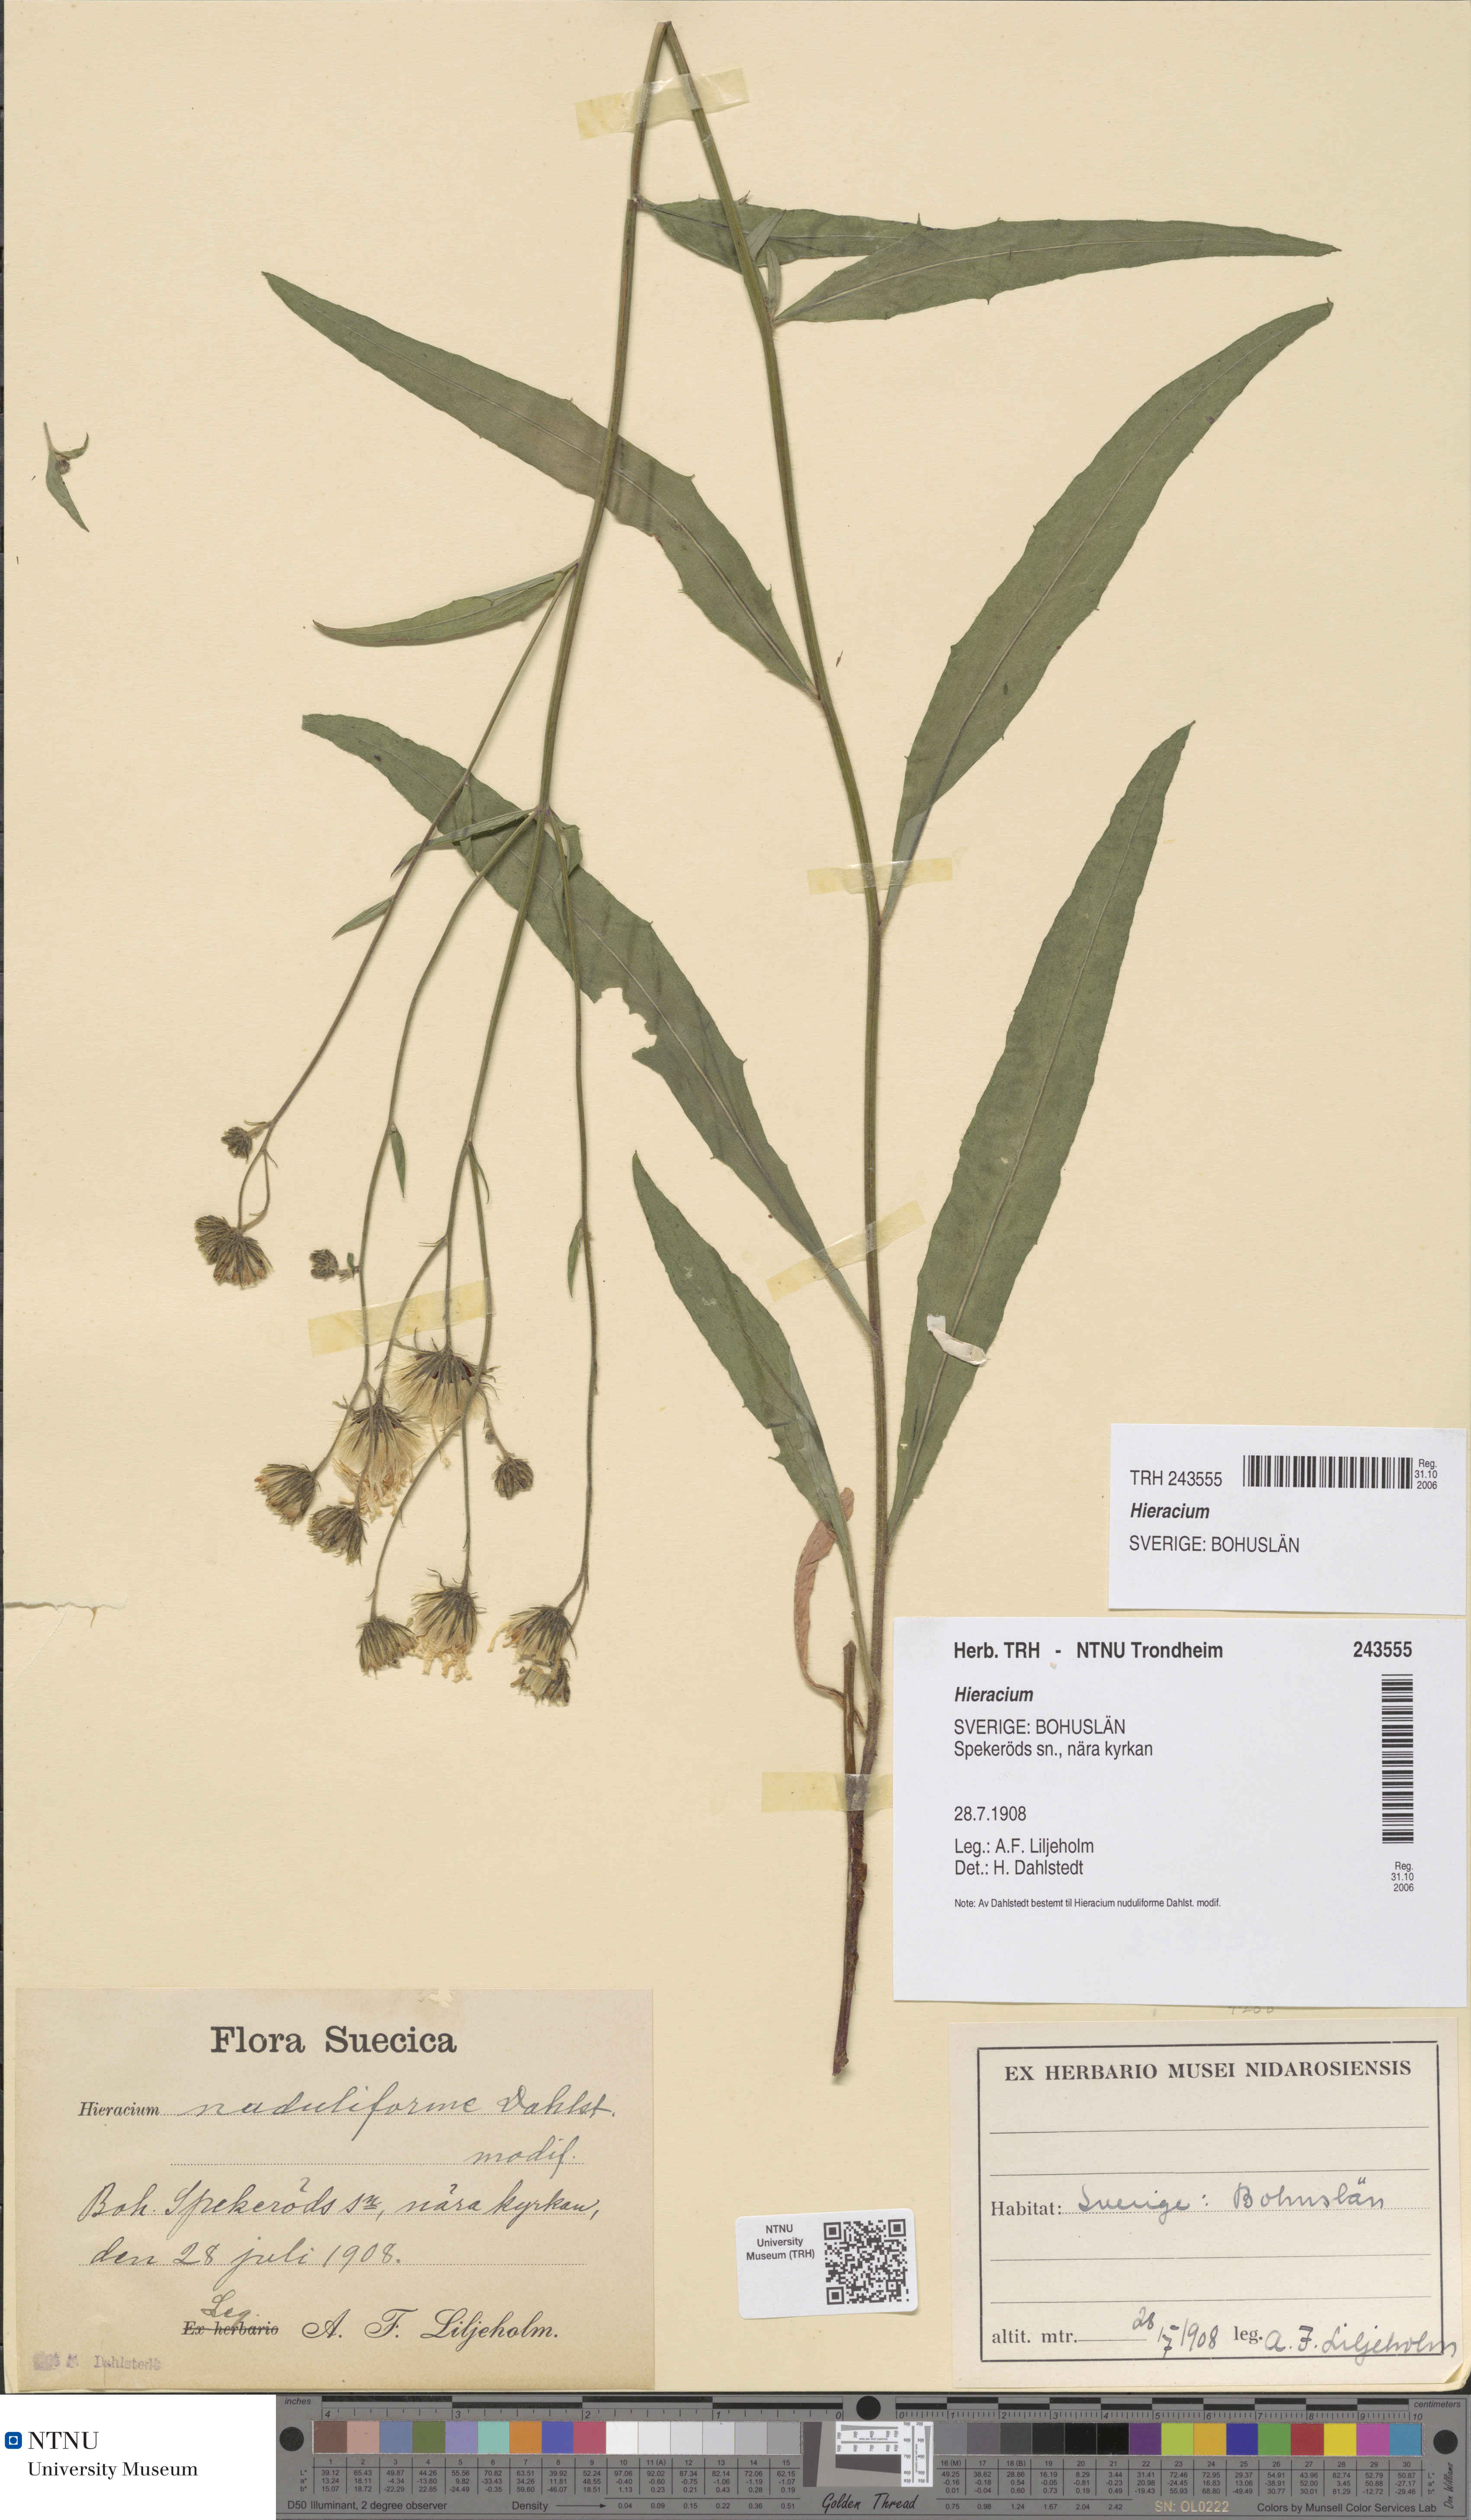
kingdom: Plantae
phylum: Tracheophyta
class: Magnoliopsida
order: Asterales
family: Asteraceae
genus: Hieracium
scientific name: Hieracium
